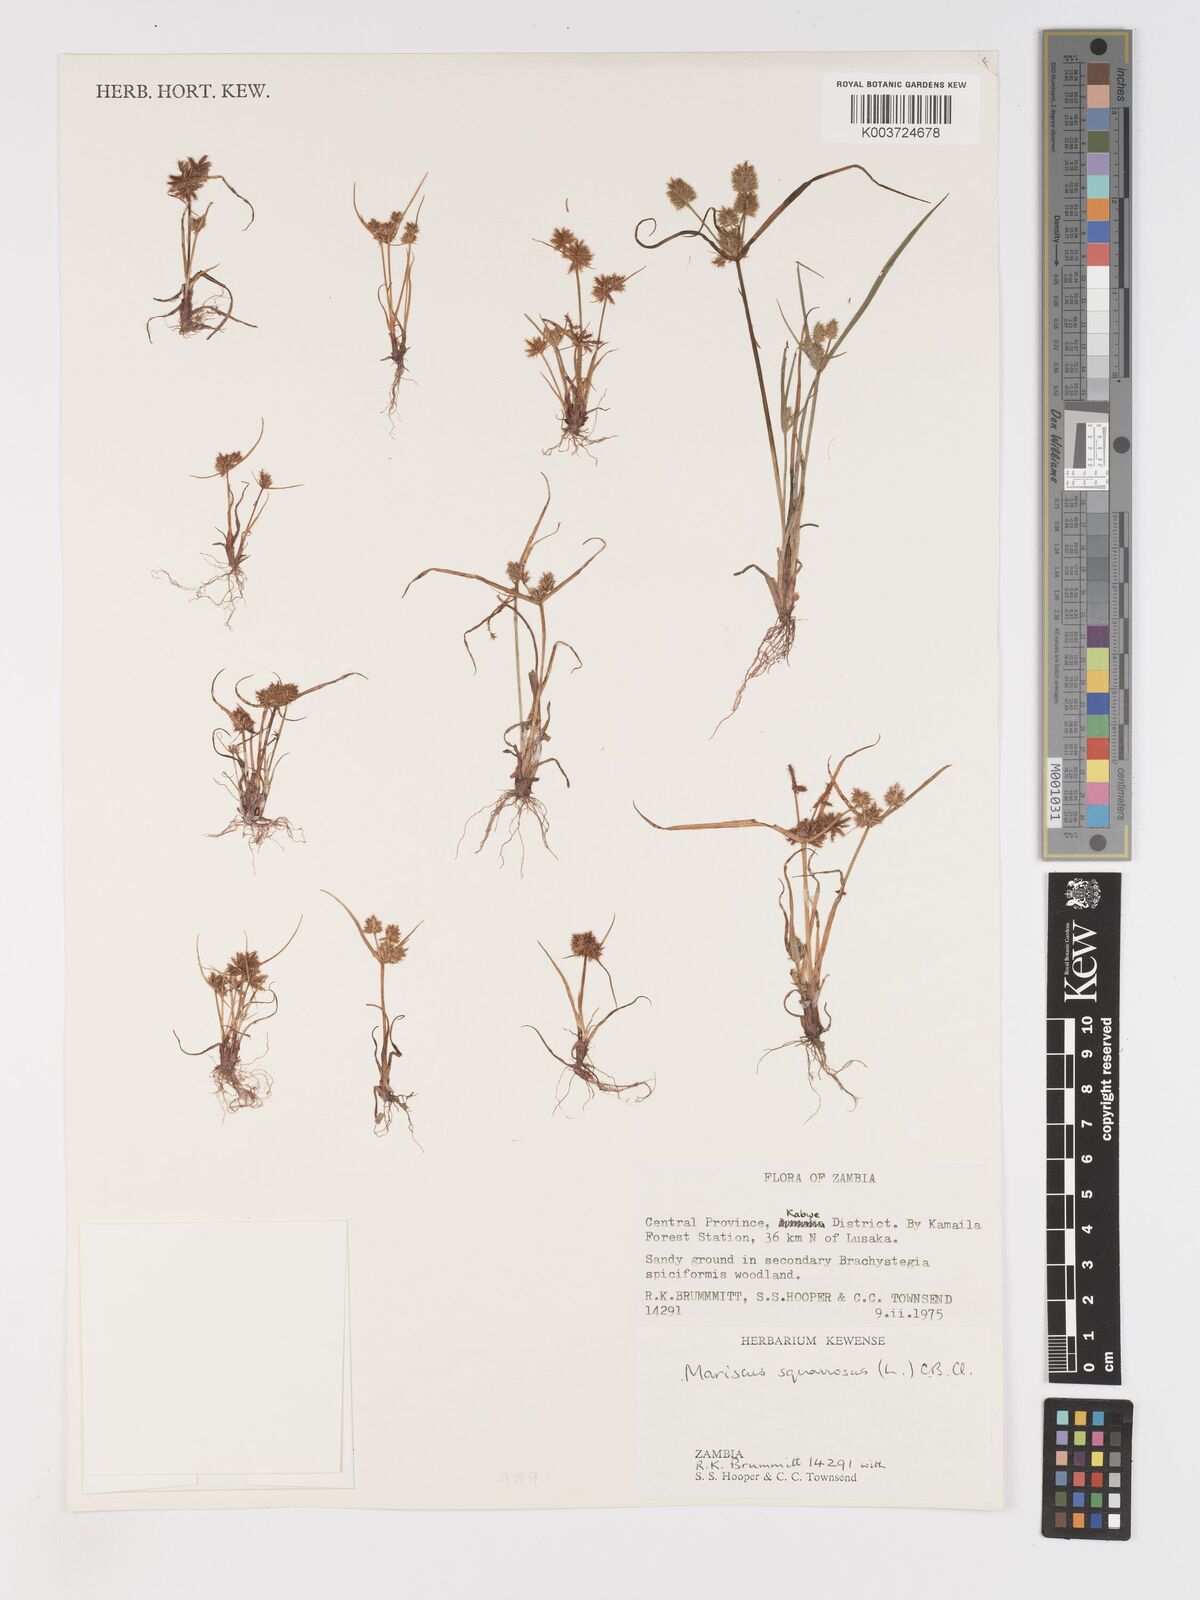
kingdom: Plantae
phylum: Tracheophyta
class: Liliopsida
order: Poales
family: Cyperaceae
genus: Cyperus
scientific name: Cyperus squarrosus
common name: Awned cyperus
